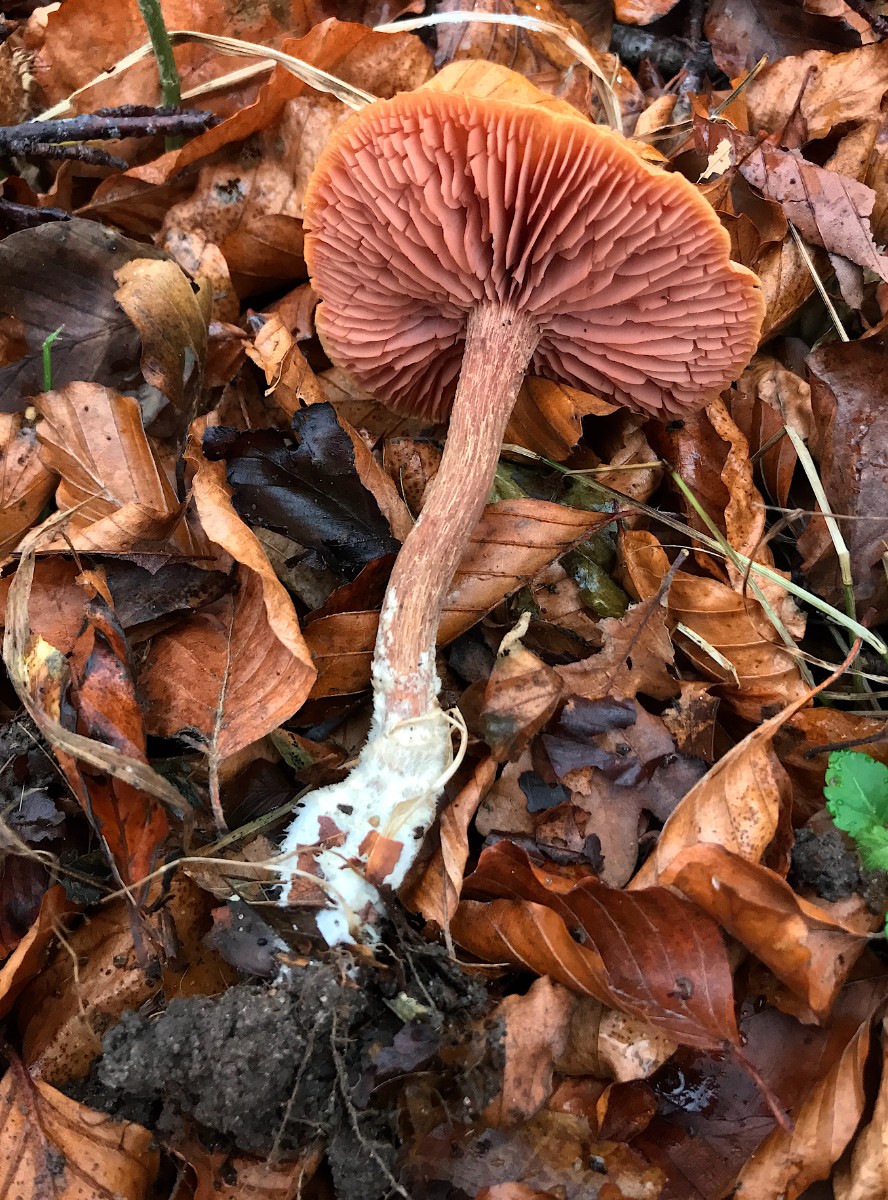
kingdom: Fungi
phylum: Basidiomycota
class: Agaricomycetes
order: Agaricales
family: Hydnangiaceae
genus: Laccaria
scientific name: Laccaria proxima
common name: stor ametysthat
